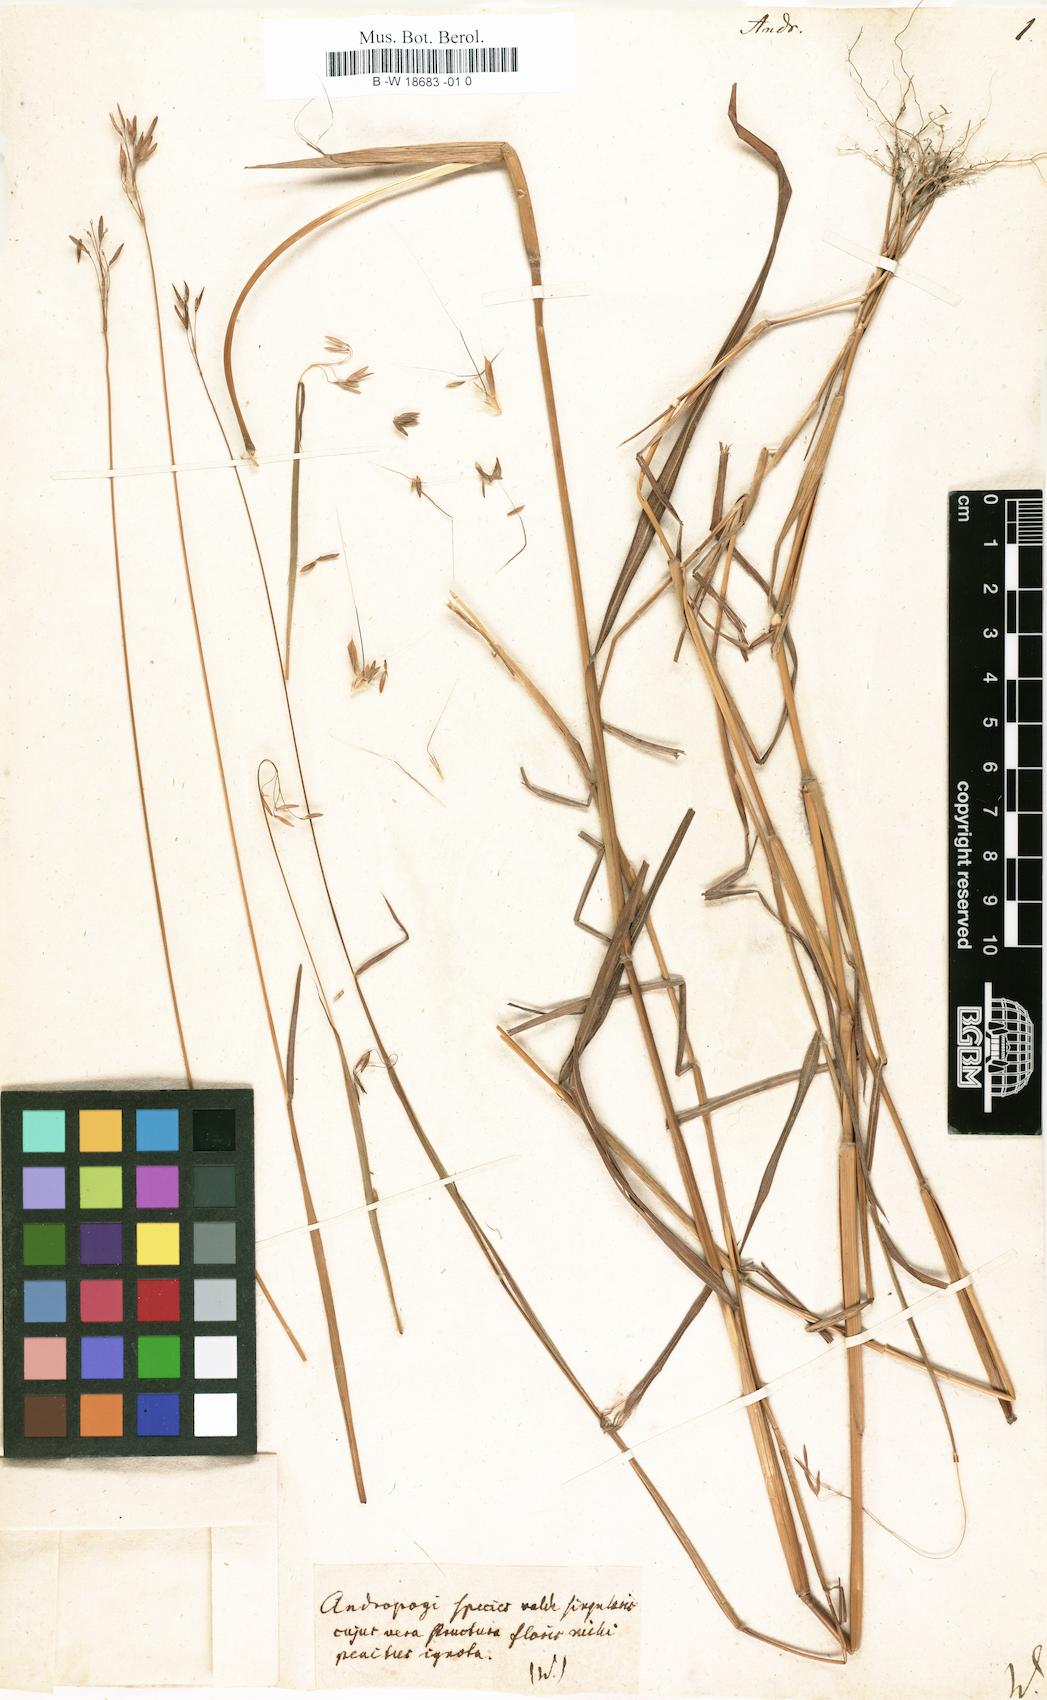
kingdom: Plantae
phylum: Tracheophyta
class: Liliopsida
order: Poales
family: Poaceae
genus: Andropogon
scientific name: Andropogon
